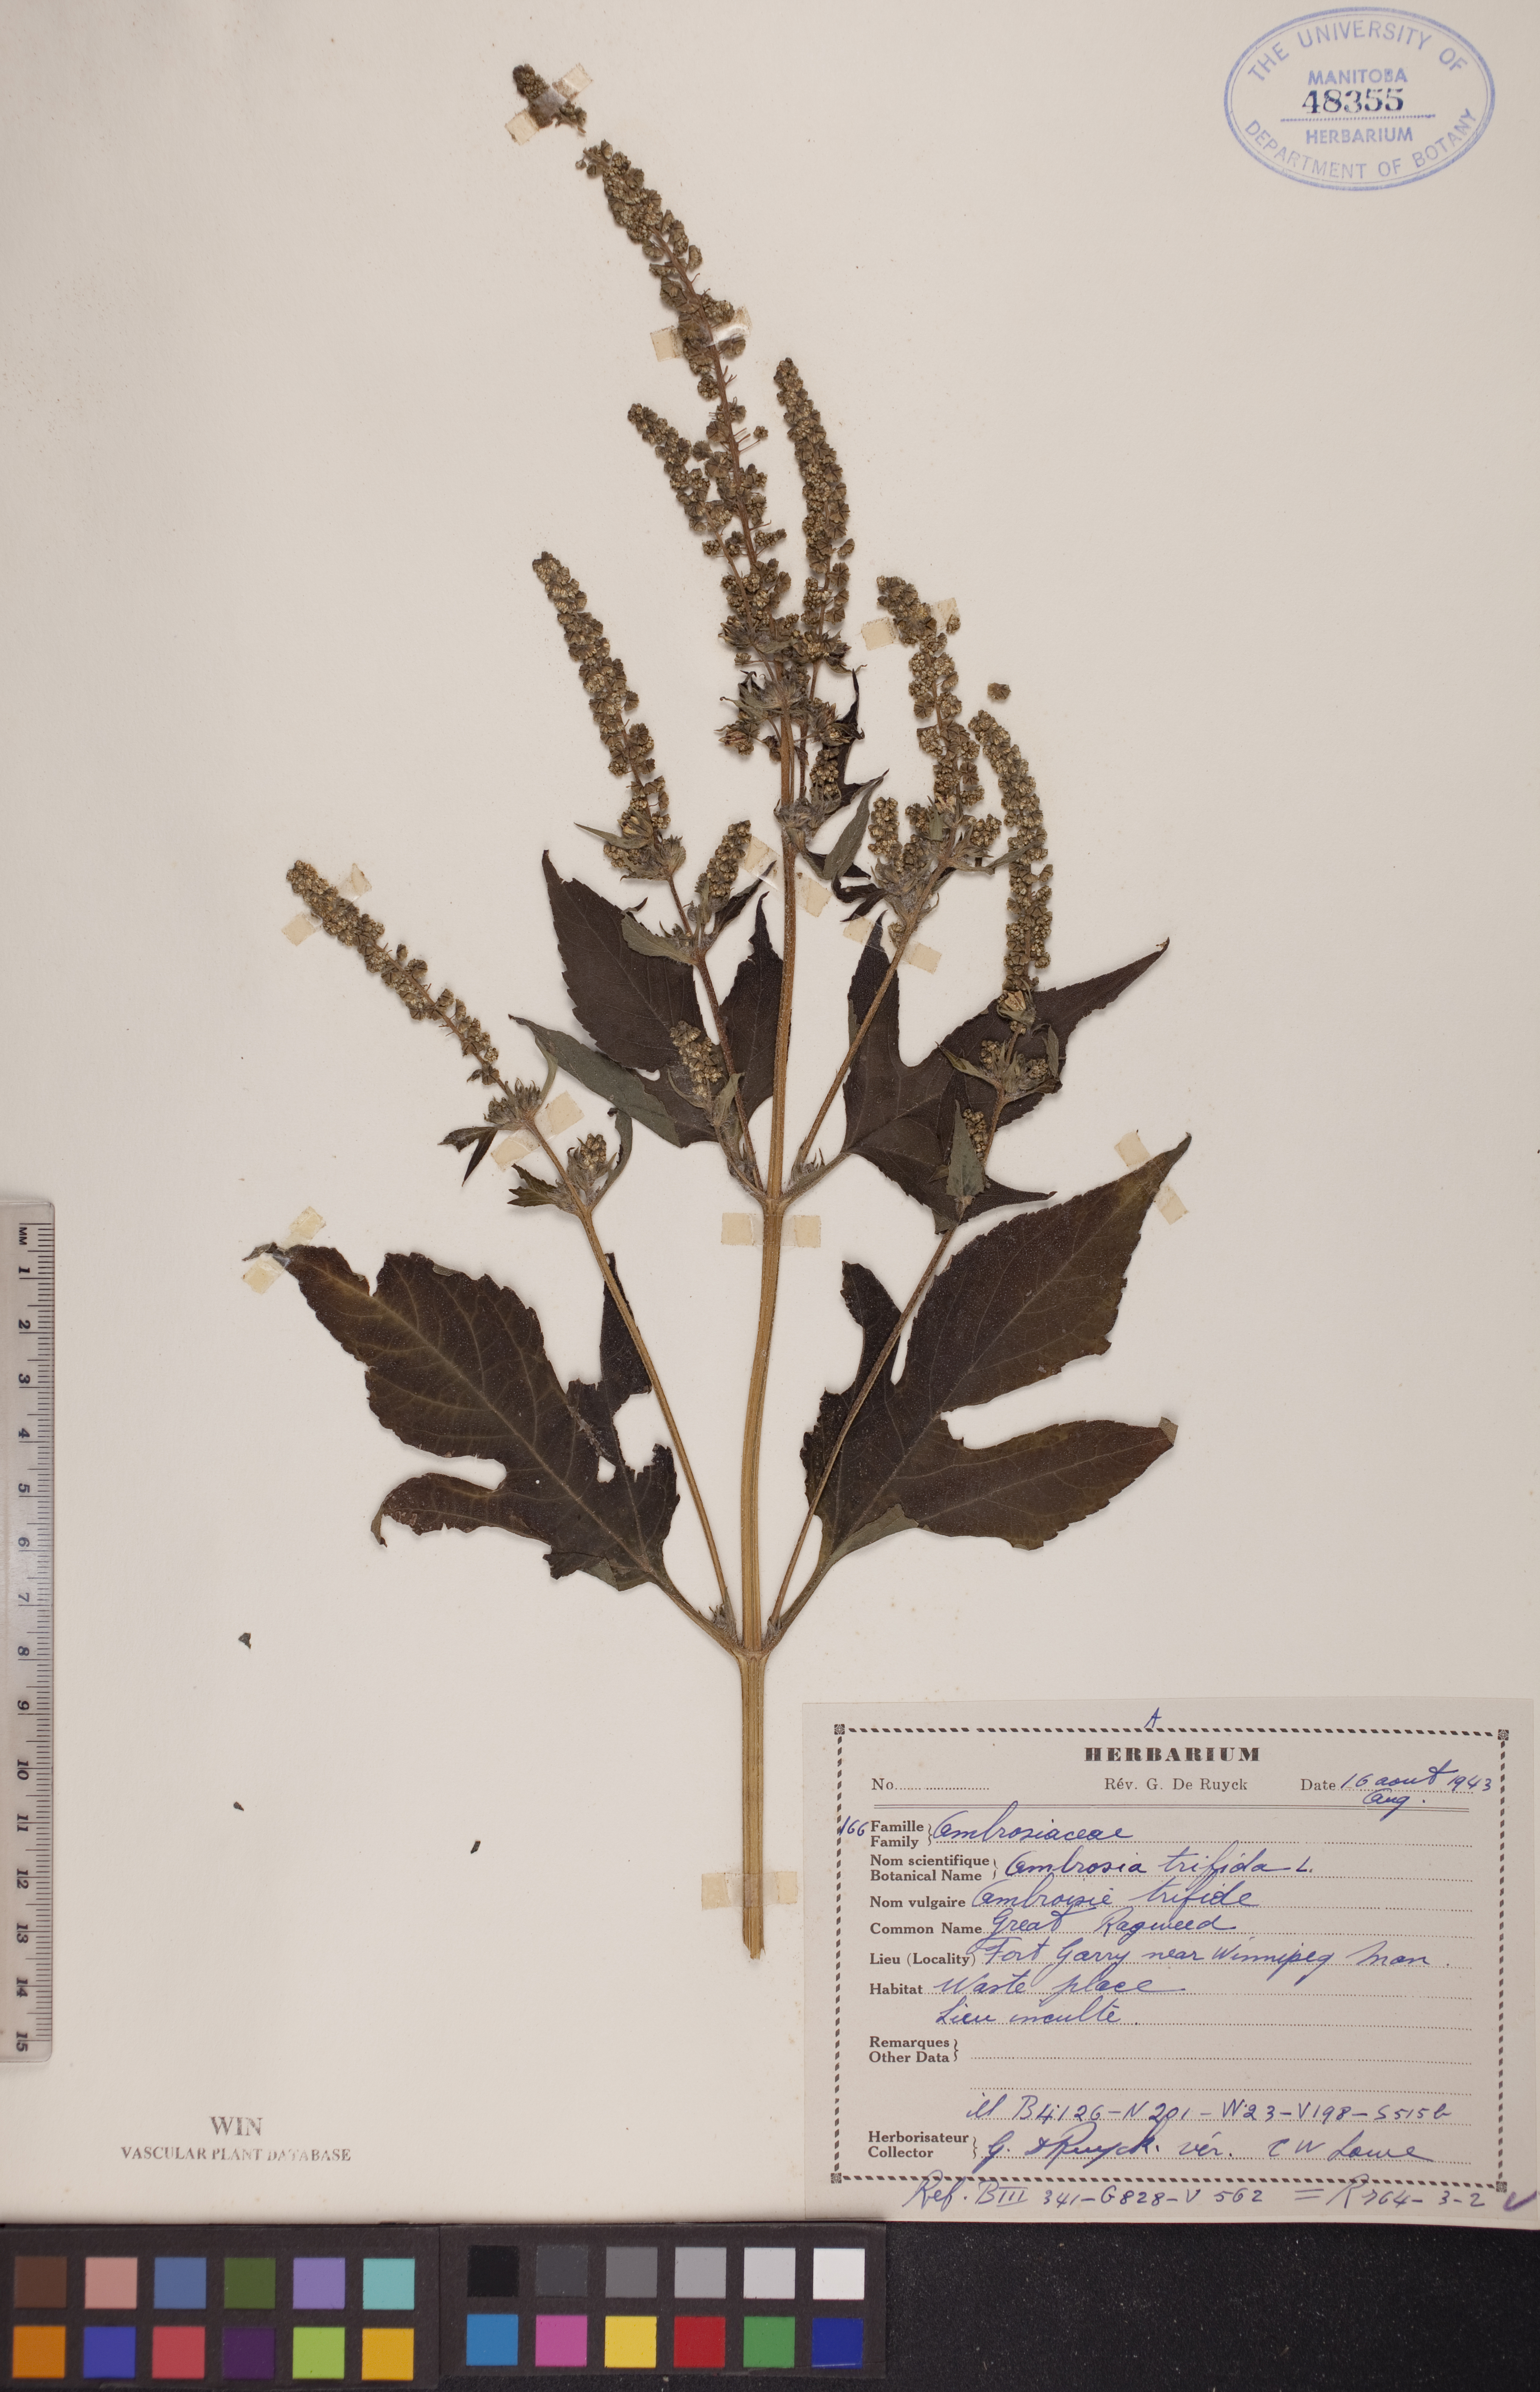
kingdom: Plantae
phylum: Tracheophyta
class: Magnoliopsida
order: Asterales
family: Asteraceae
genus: Ambrosia
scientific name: Ambrosia trifida
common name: Giant ragweed
